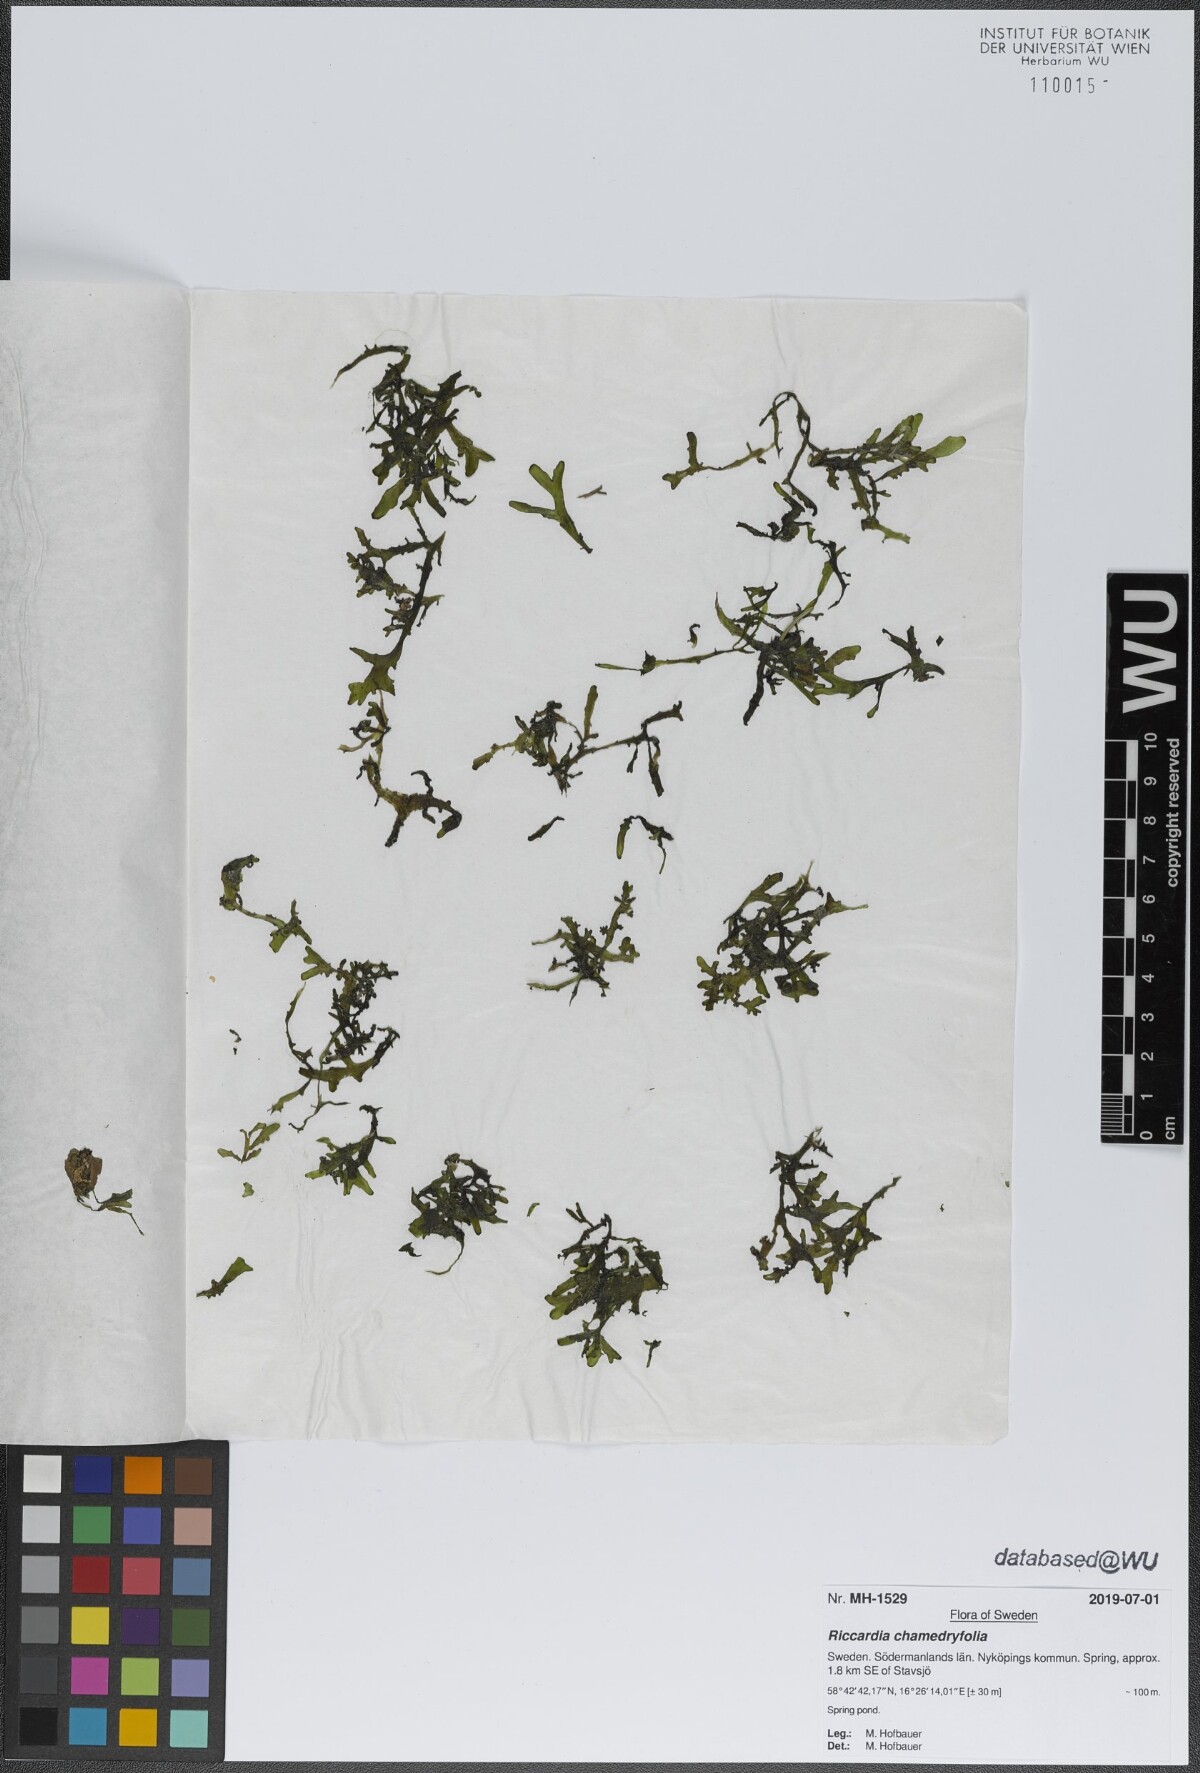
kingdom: Plantae
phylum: Marchantiophyta
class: Jungermanniopsida
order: Metzgeriales
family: Aneuraceae
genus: Riccardia
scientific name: Riccardia chamedryfolia
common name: Jagged germanderwort
